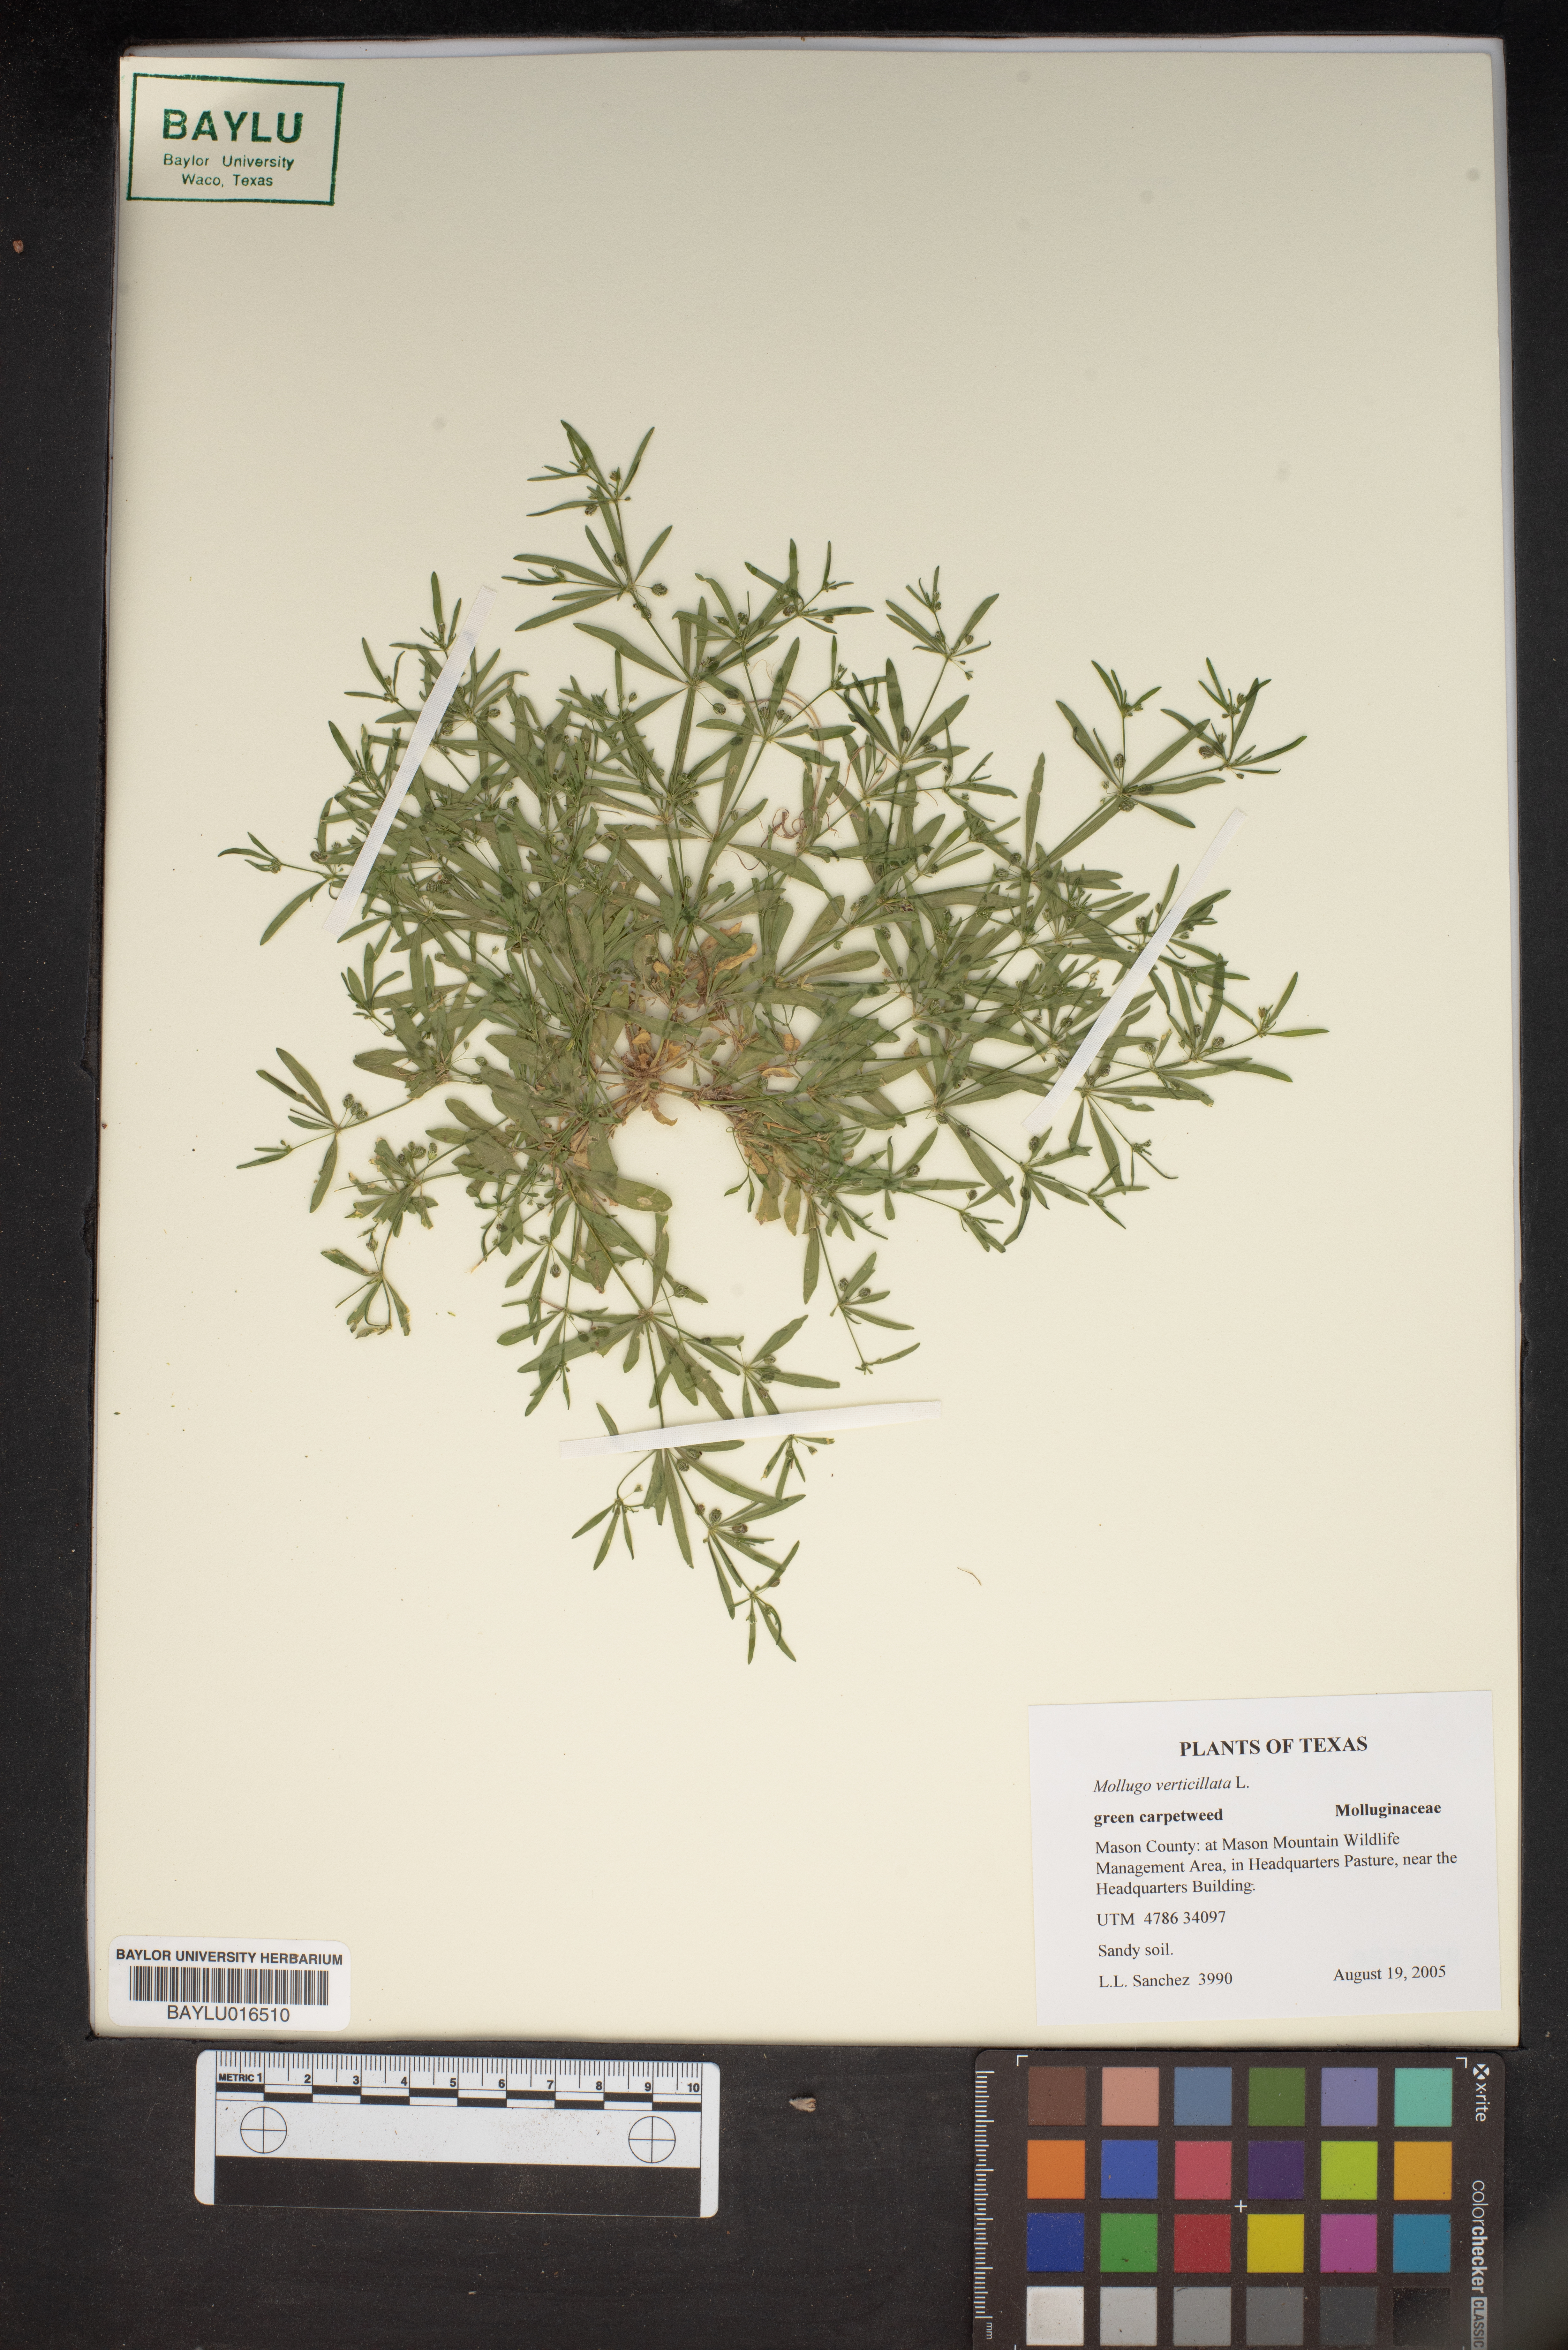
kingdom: Plantae
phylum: Tracheophyta
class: Magnoliopsida
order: Caryophyllales
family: Molluginaceae
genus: Mollugo
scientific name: Mollugo verticillata
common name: Green carpetweed
